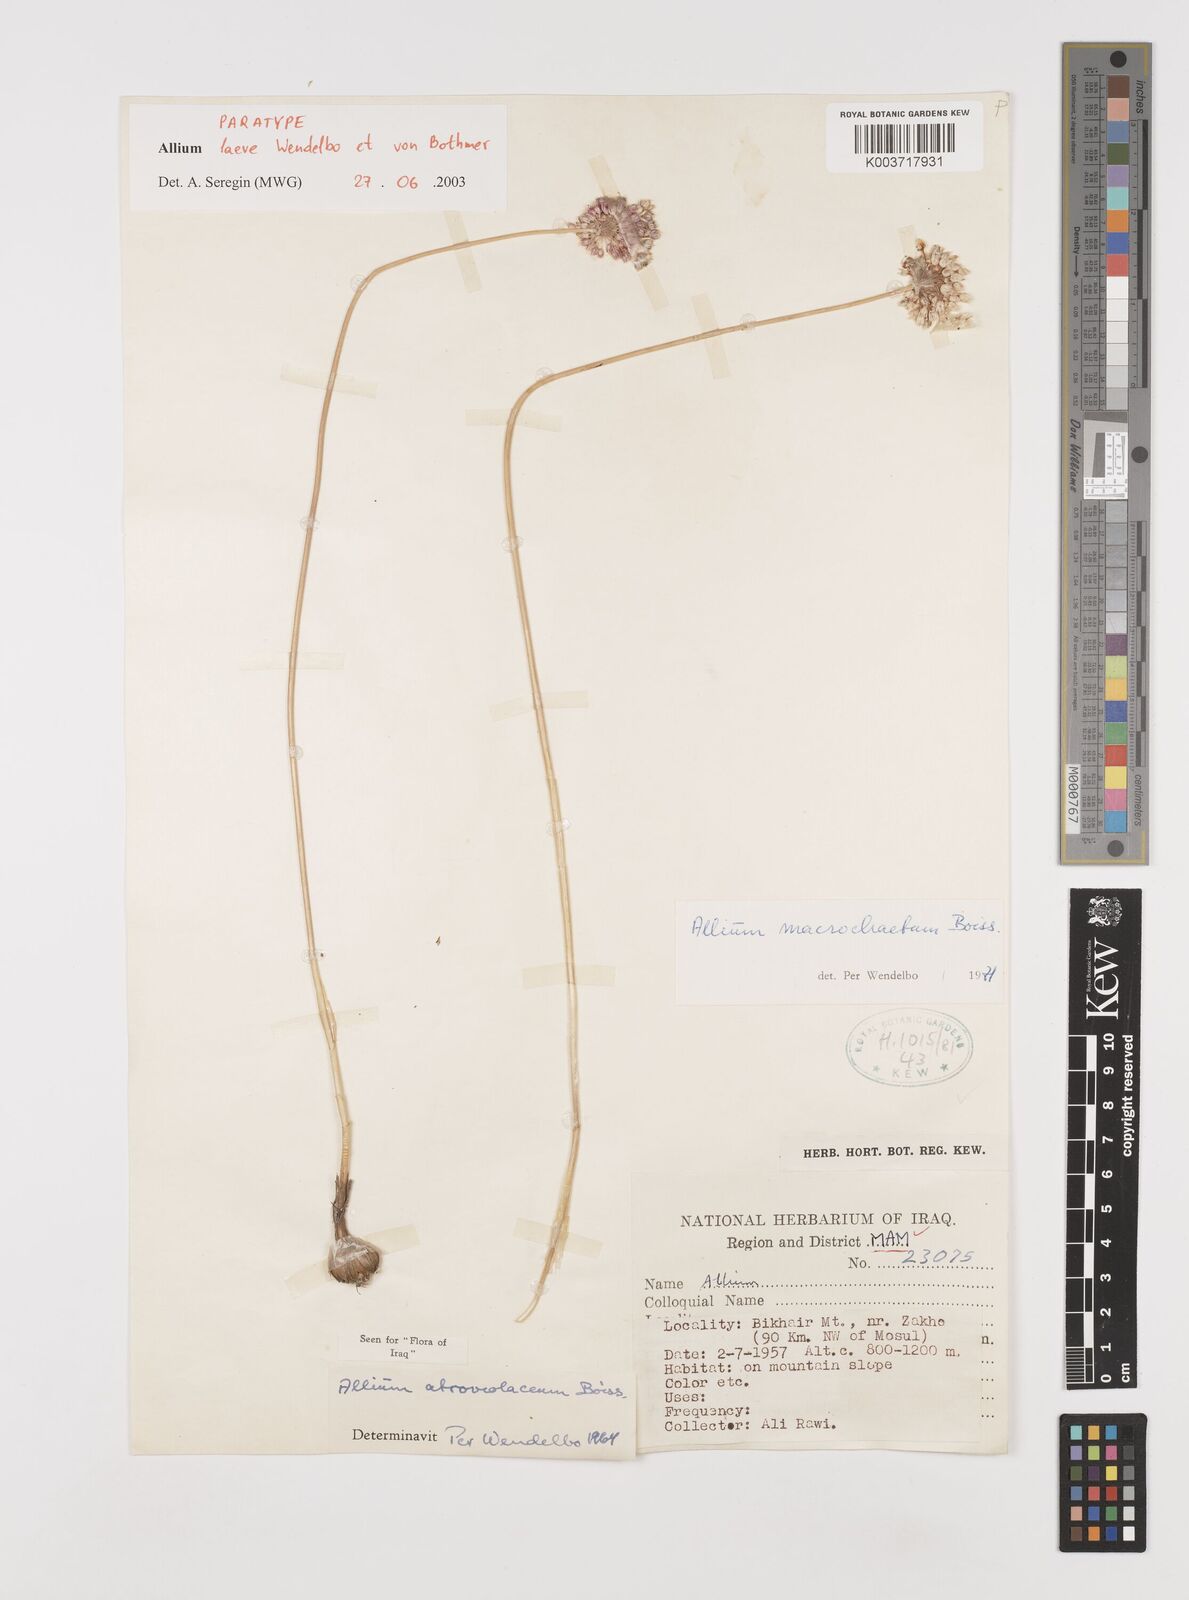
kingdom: Plantae
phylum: Tracheophyta
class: Liliopsida
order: Asparagales
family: Amaryllidaceae
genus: Allium
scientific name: Allium macrochaetum
